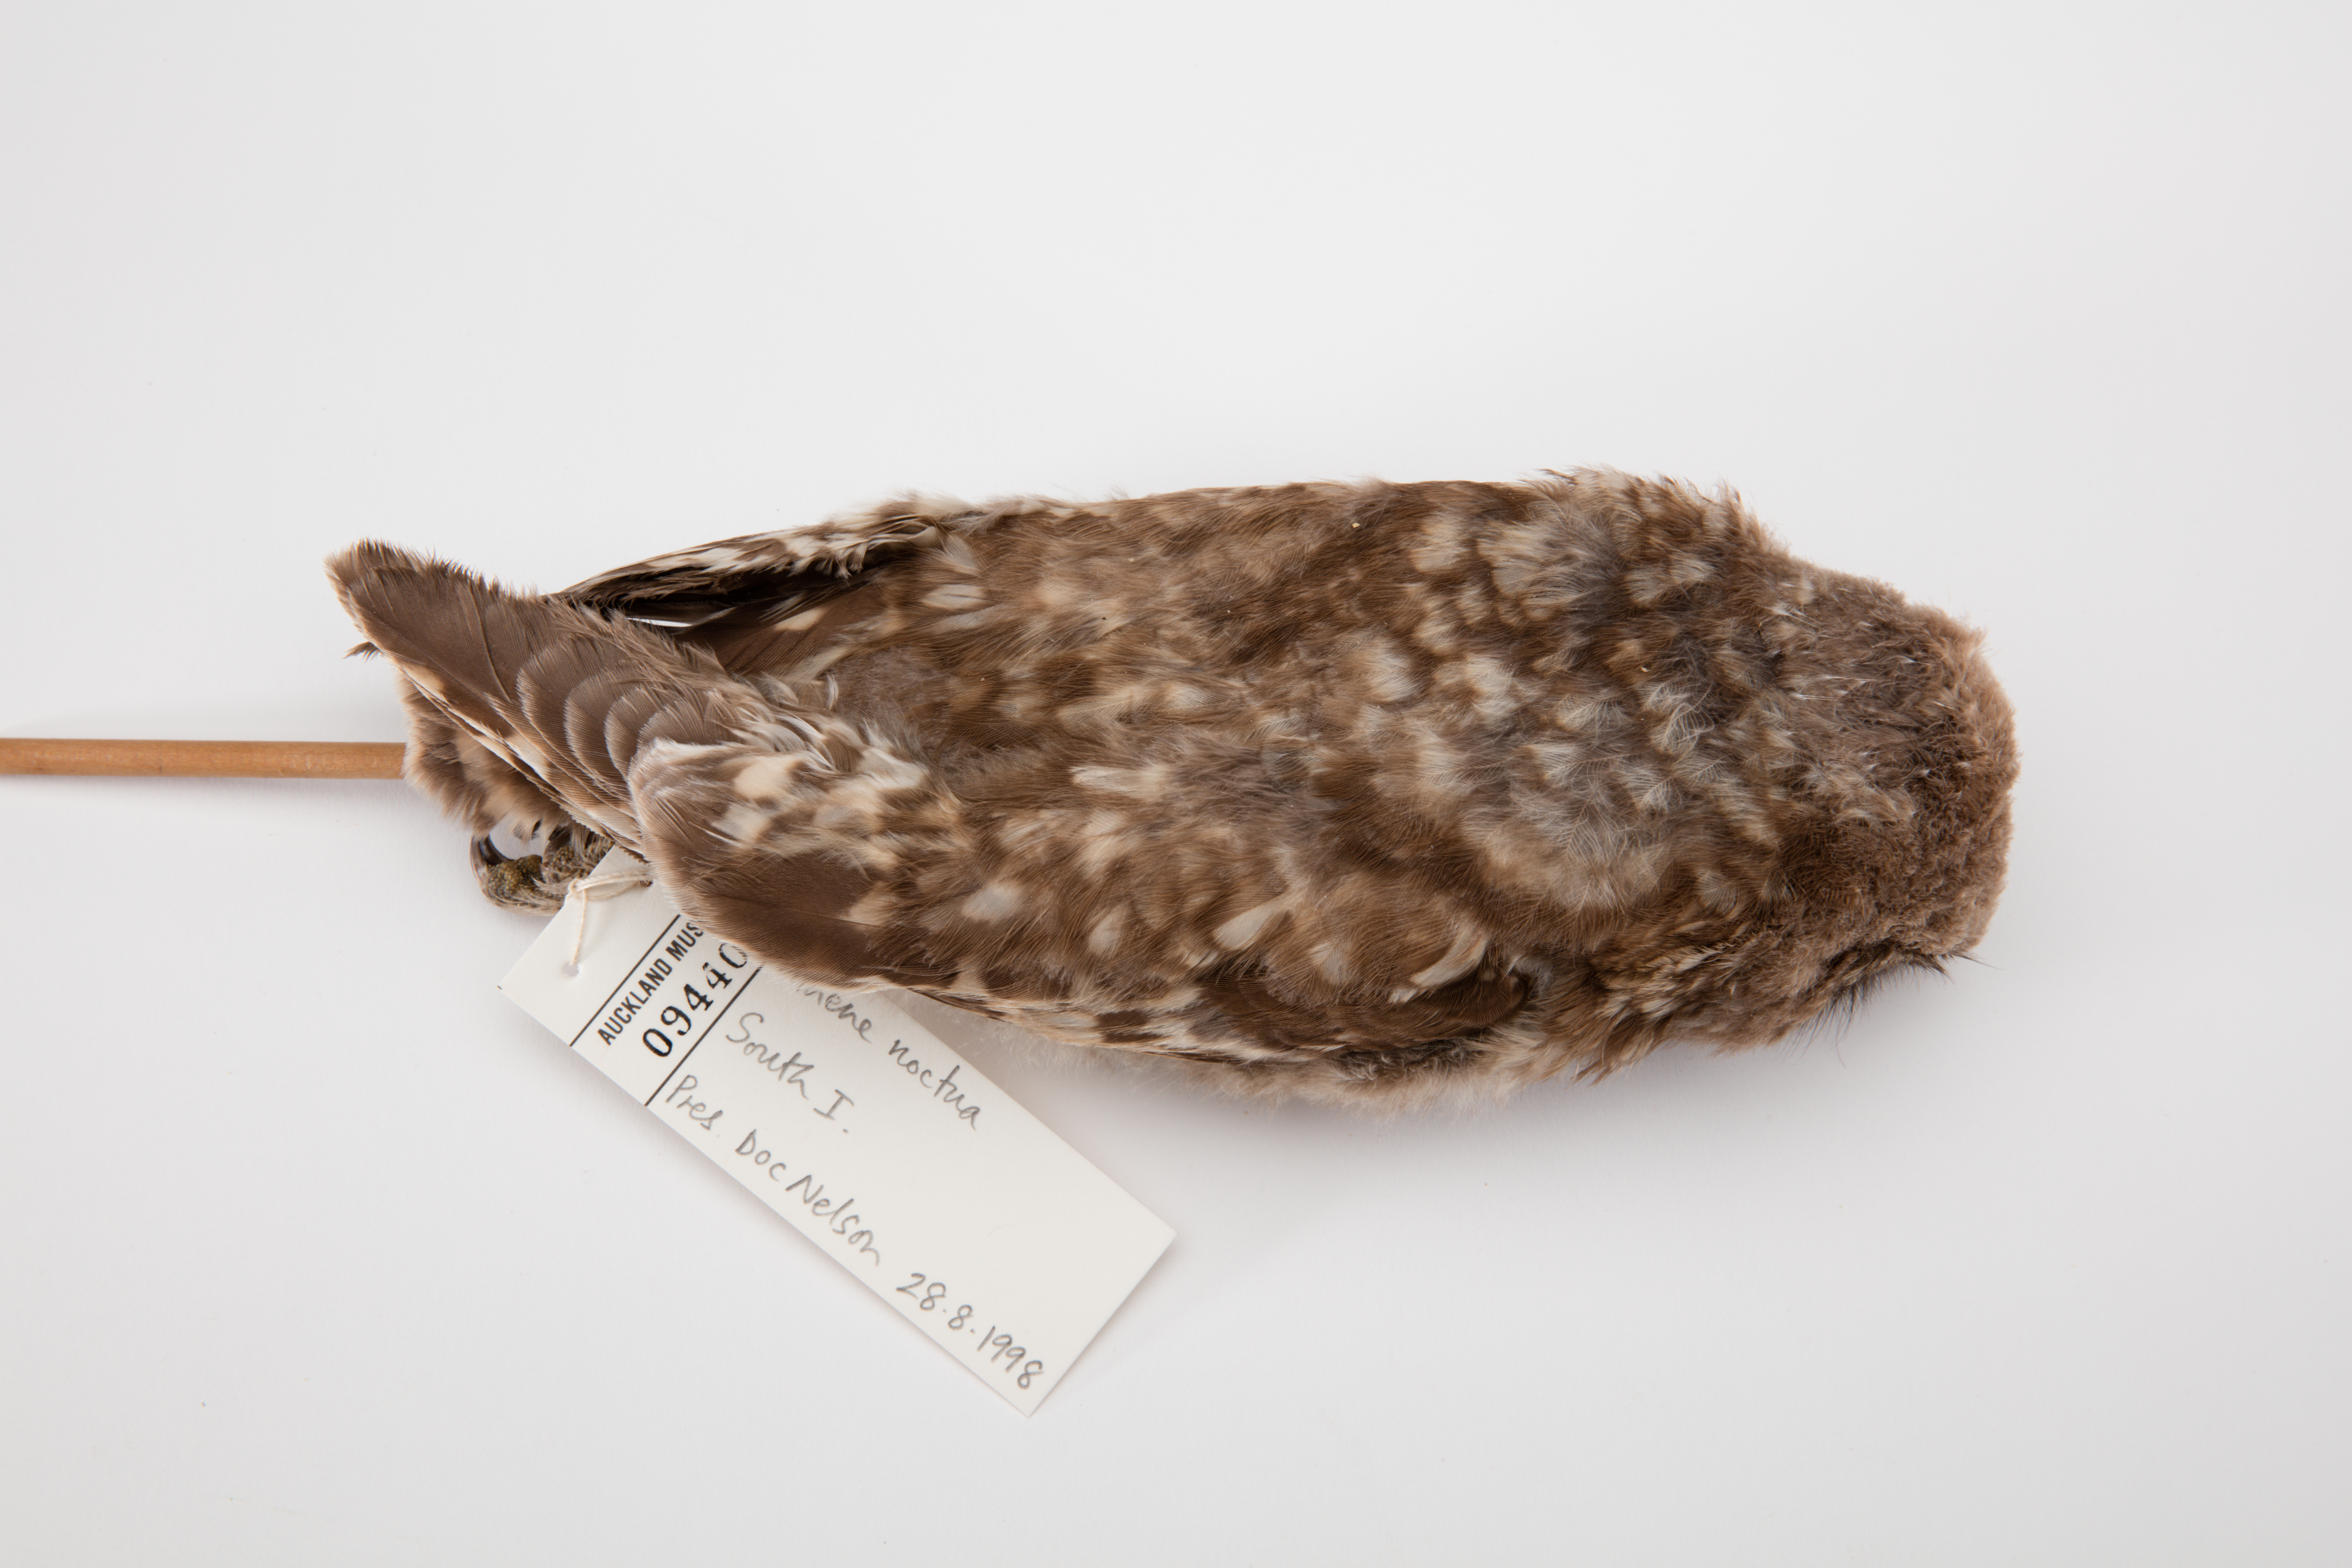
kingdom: Animalia
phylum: Chordata
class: Aves
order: Strigiformes
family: Strigidae
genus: Athene
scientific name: Athene noctua
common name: Little owl
